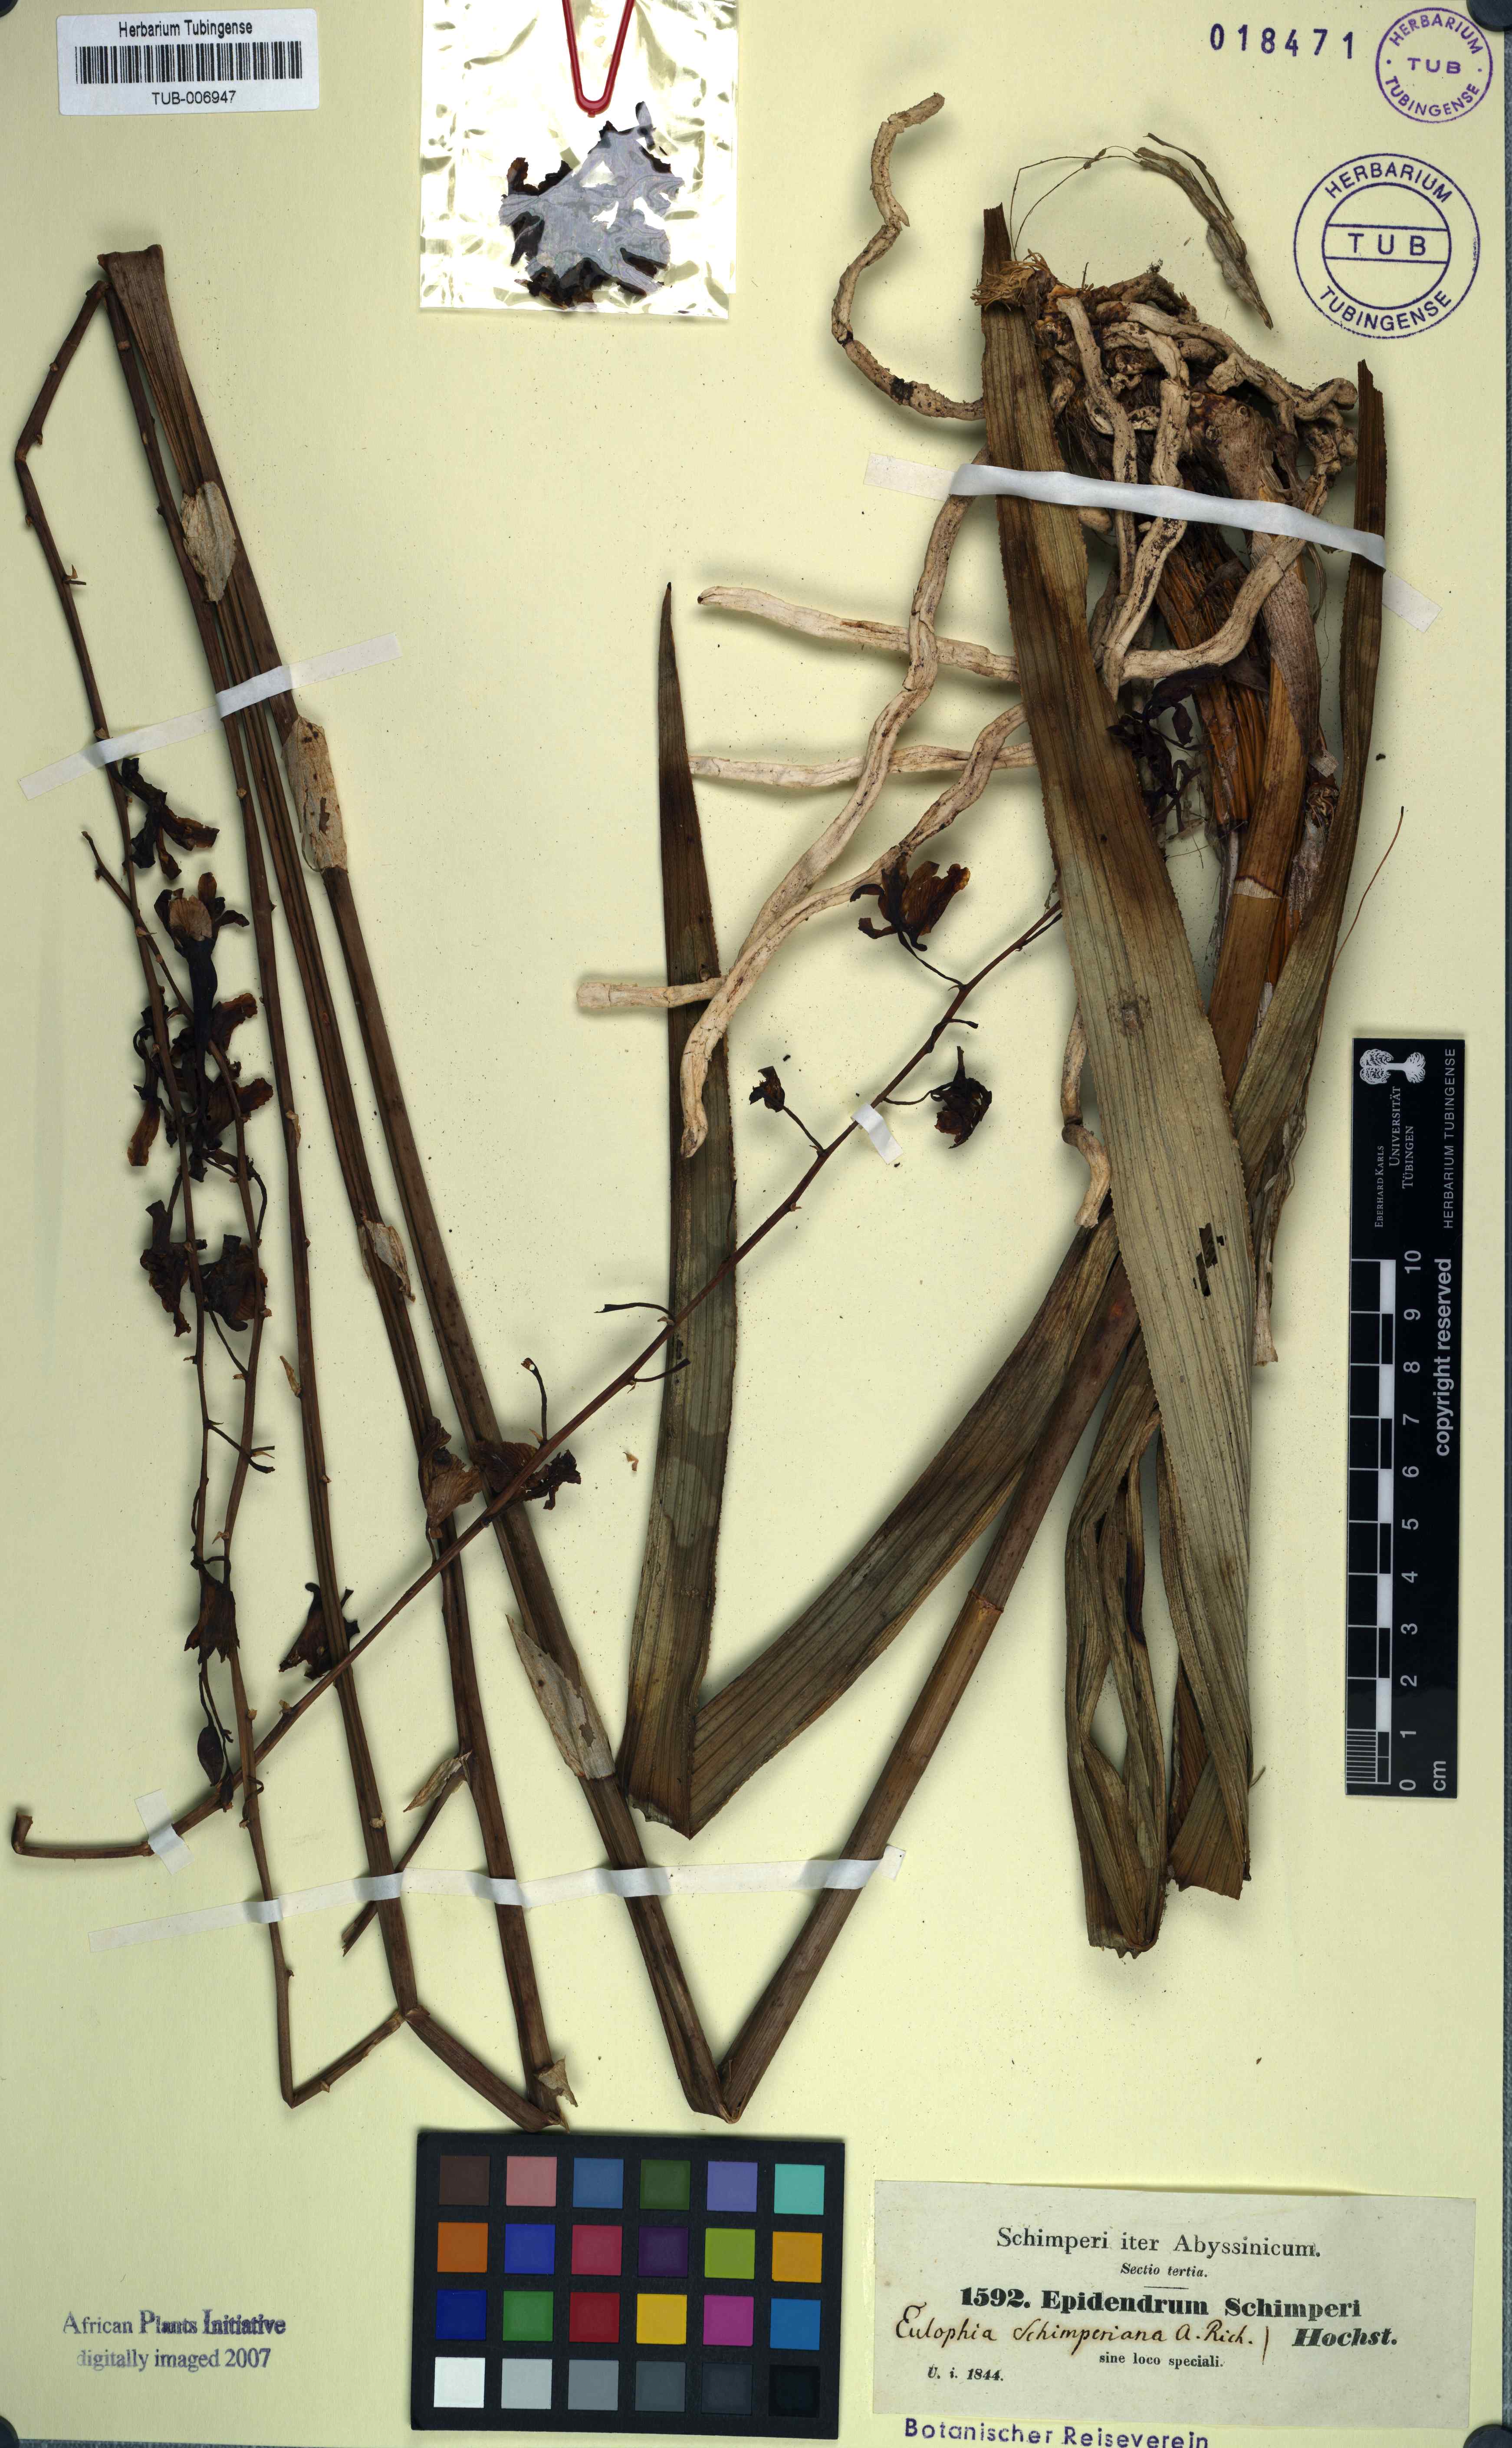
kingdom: Plantae
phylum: Tracheophyta
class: Liliopsida
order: Asparagales
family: Orchidaceae
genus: Eulophia
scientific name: Eulophia petersii
